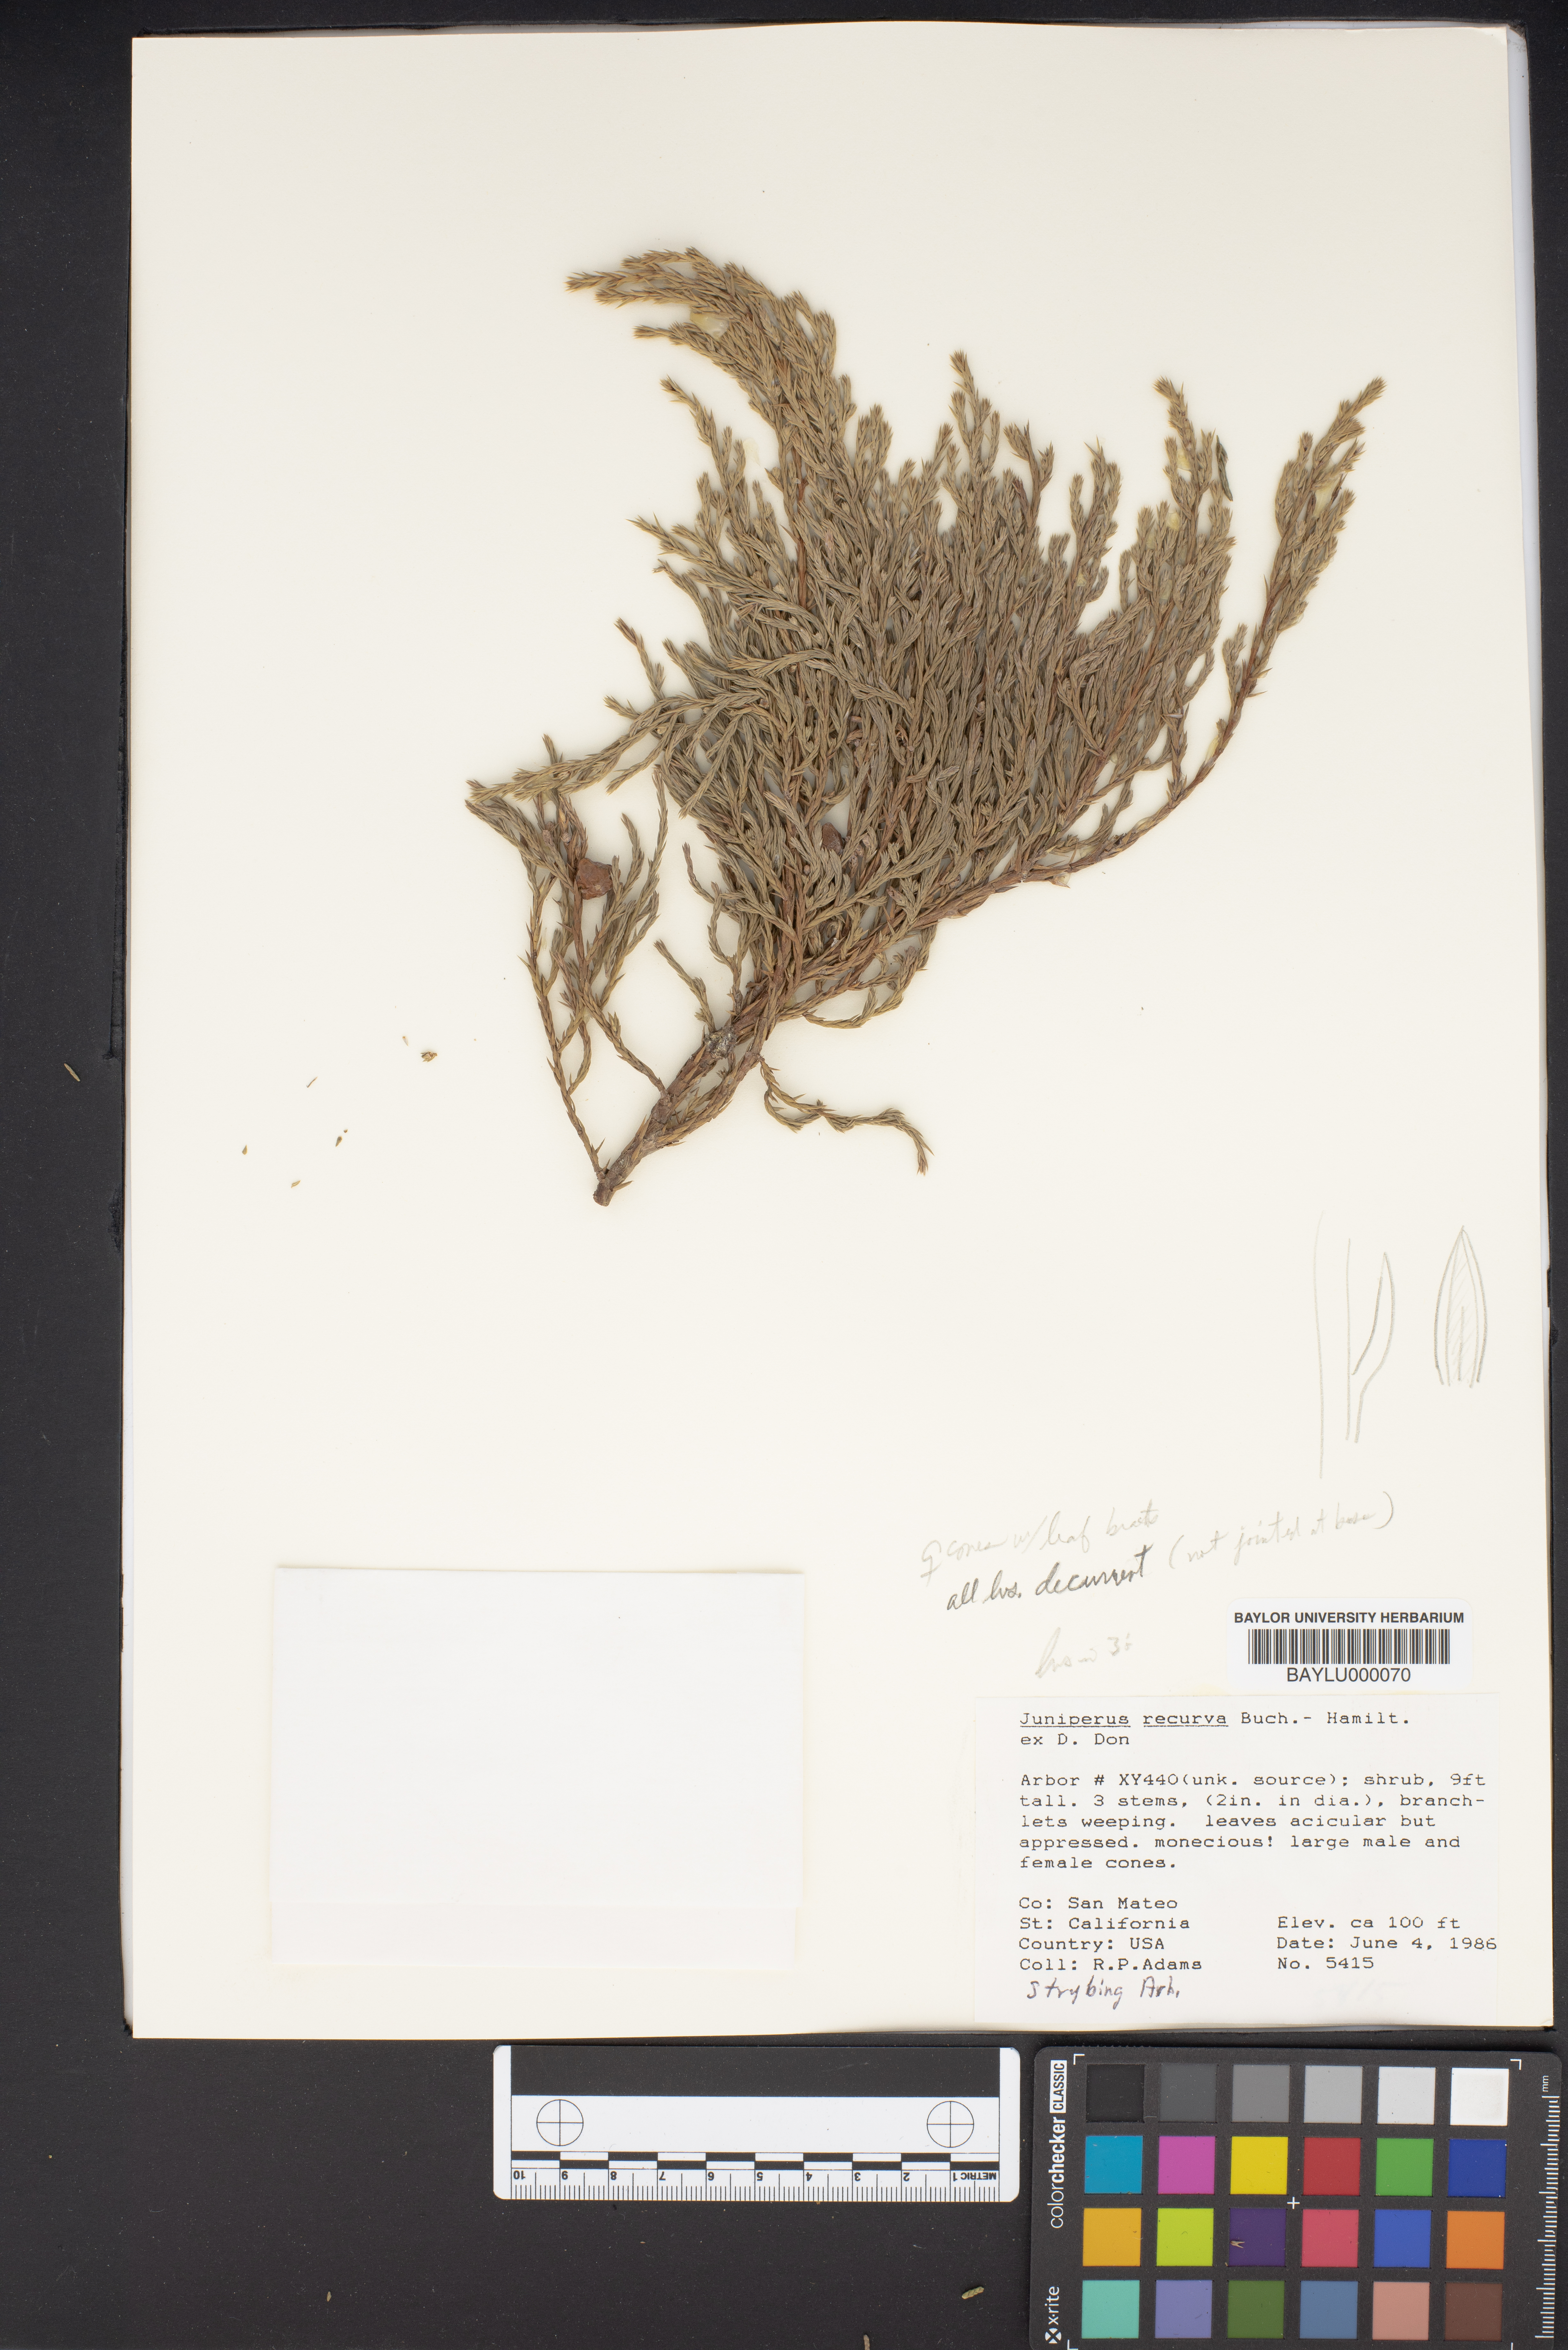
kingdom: Plantae
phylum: Tracheophyta
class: Pinopsida
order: Pinales
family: Cupressaceae
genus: Juniperus
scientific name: Juniperus recurva
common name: Drooping juniper
